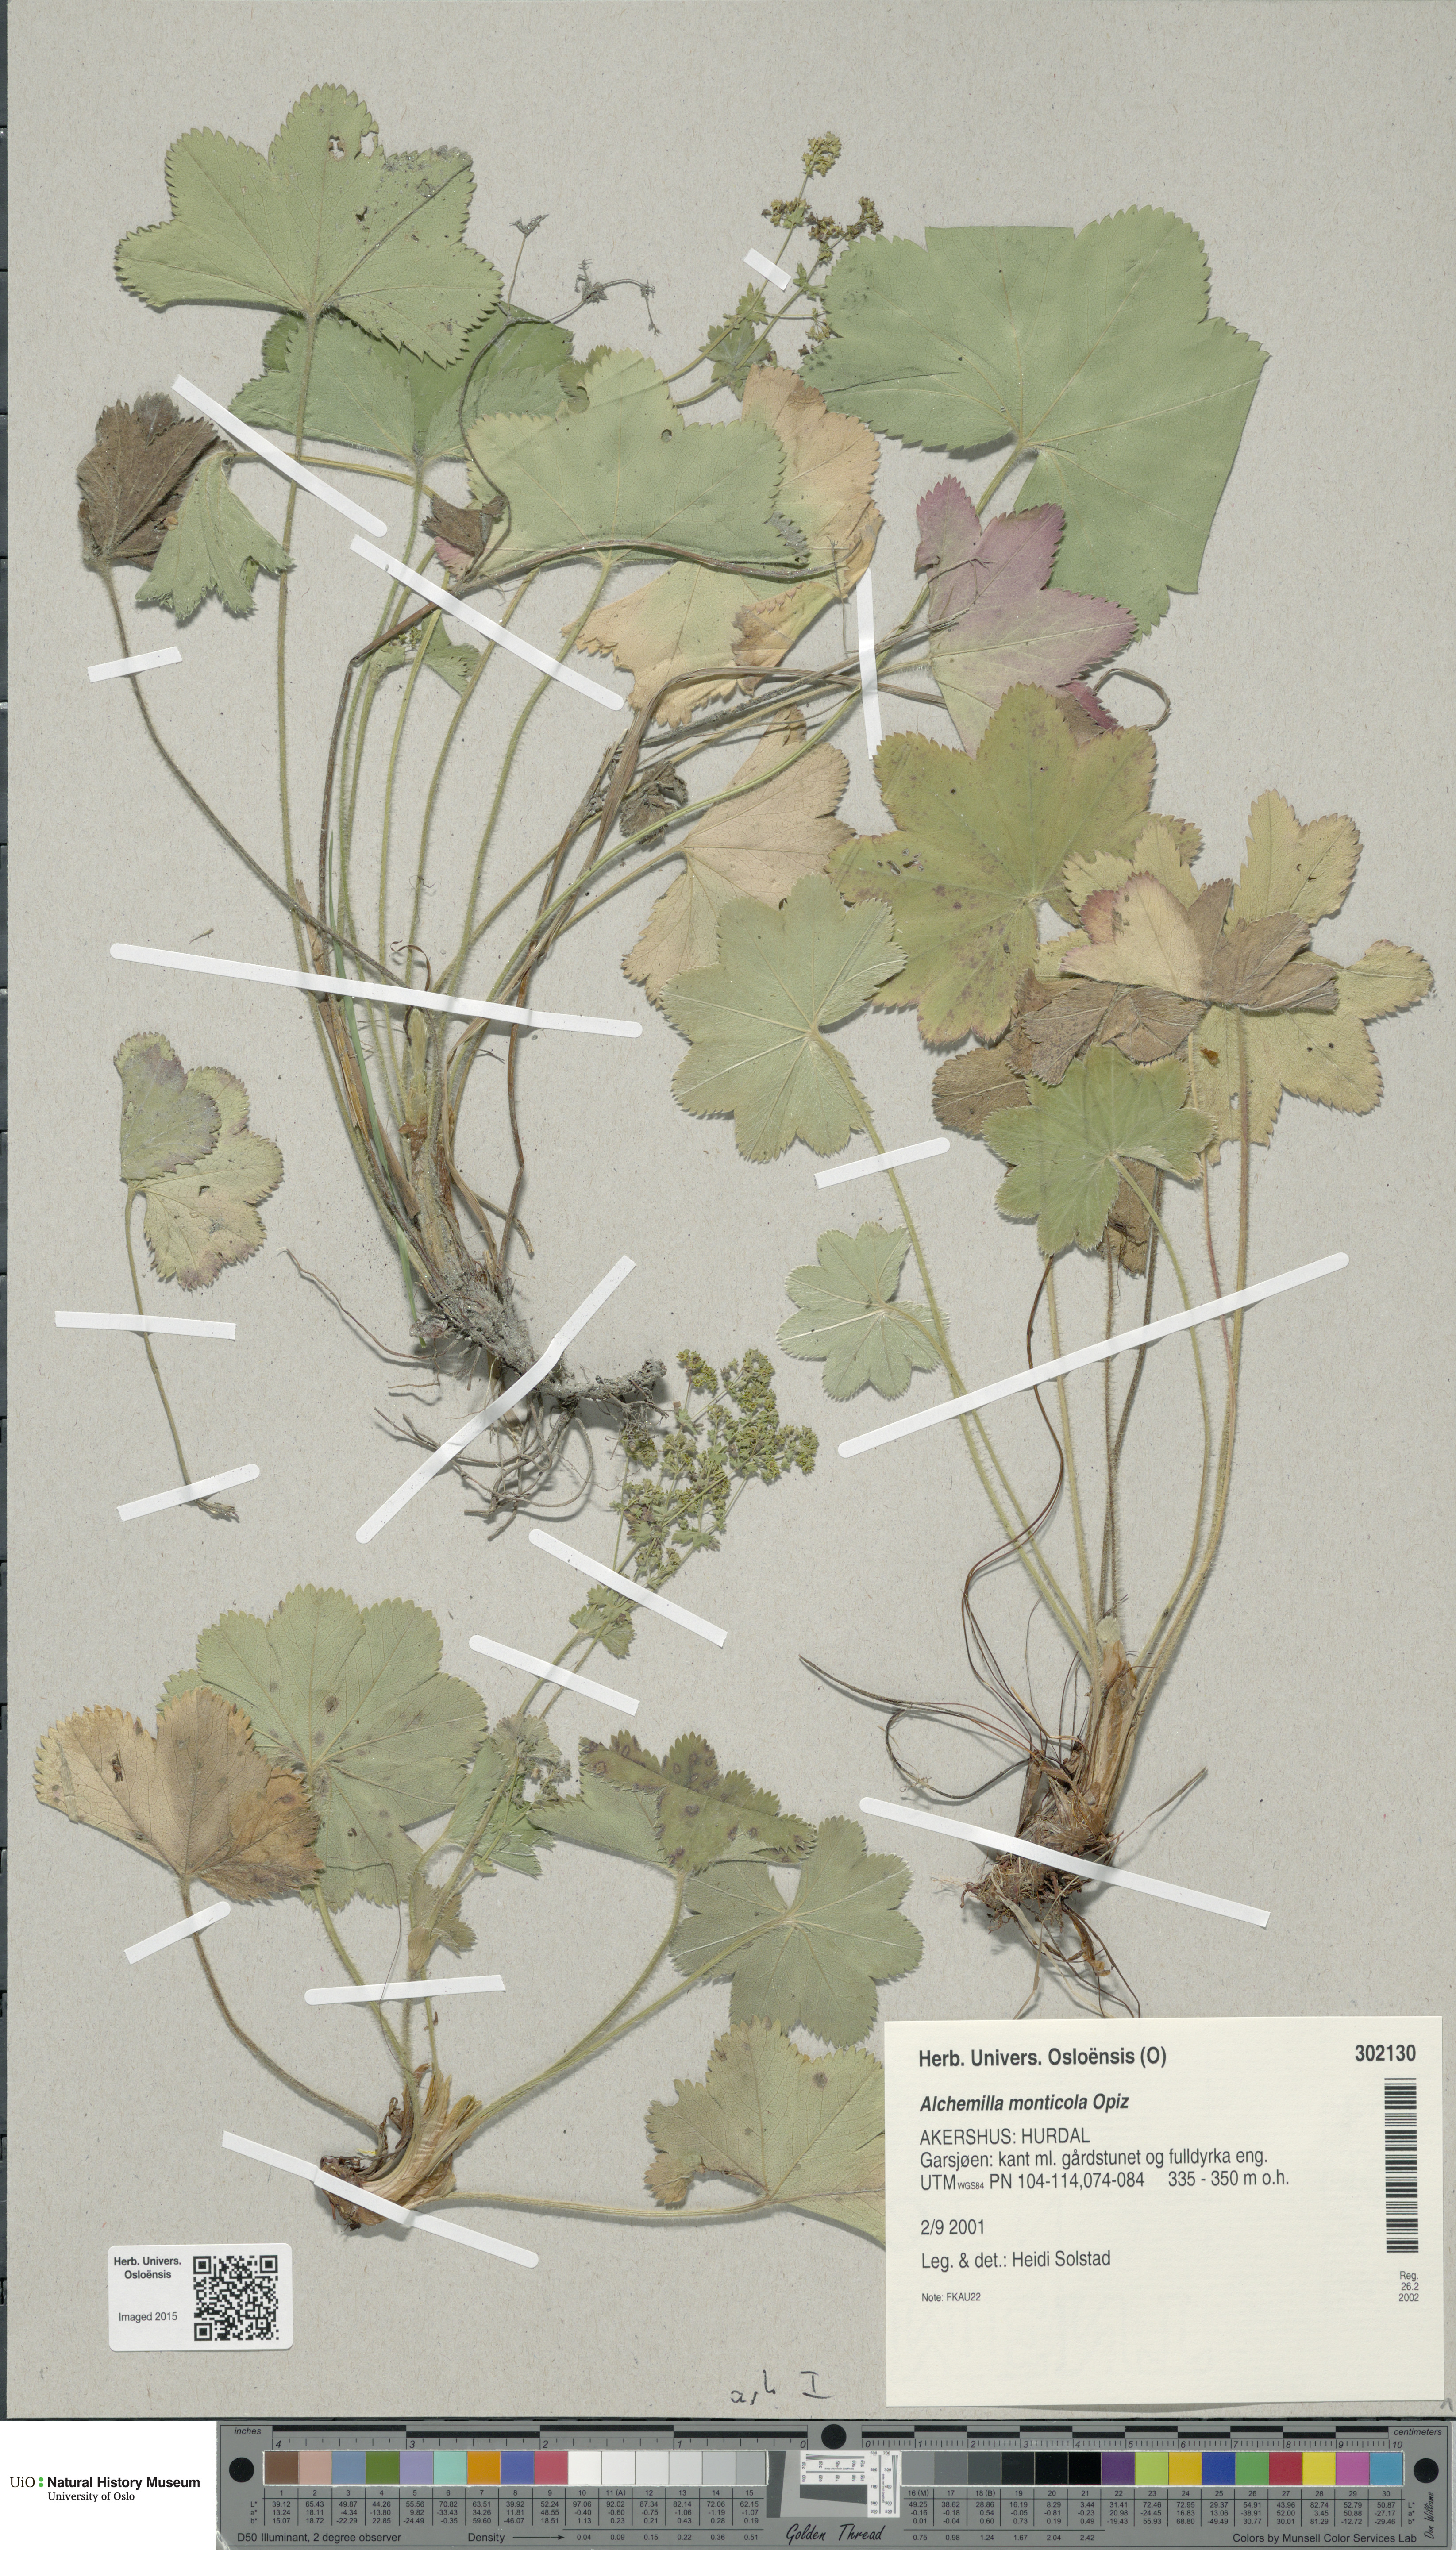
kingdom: Plantae
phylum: Tracheophyta
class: Magnoliopsida
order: Rosales
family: Rosaceae
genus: Alchemilla
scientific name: Alchemilla monticola
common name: Hairy lady's mantle
